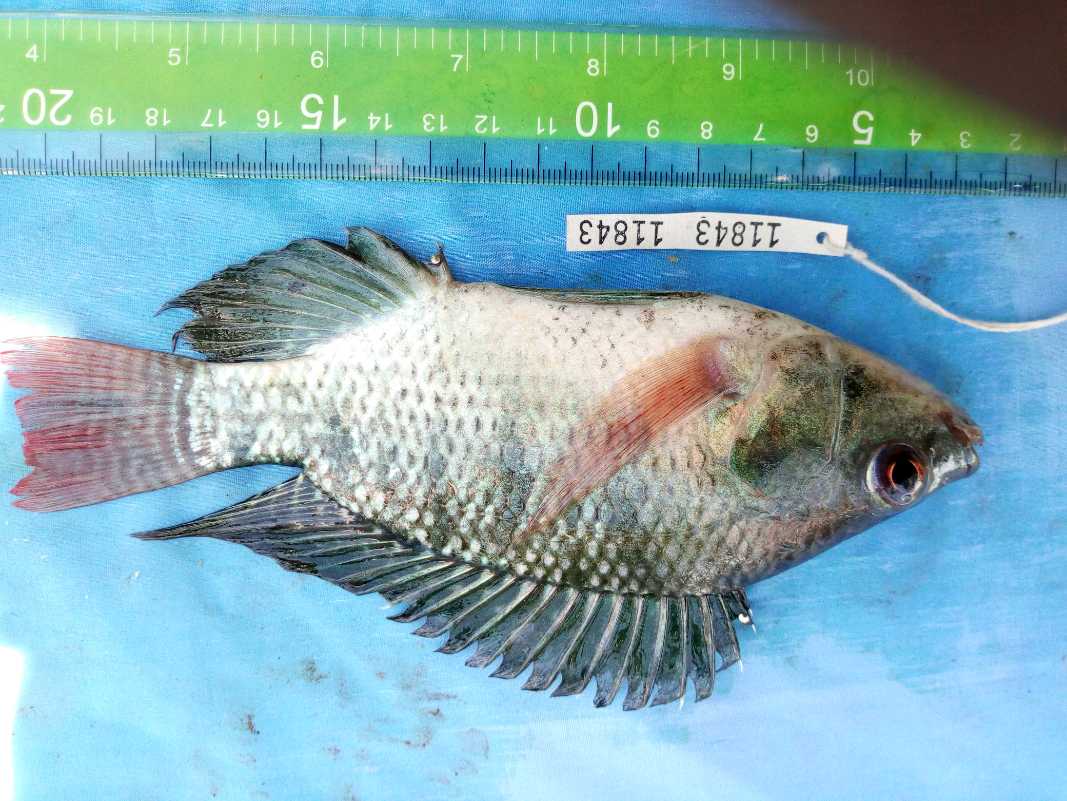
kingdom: Animalia
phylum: Chordata
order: Perciformes
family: Cichlidae
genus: Oreochromis
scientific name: Oreochromis niloticus
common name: Nile tilapia
